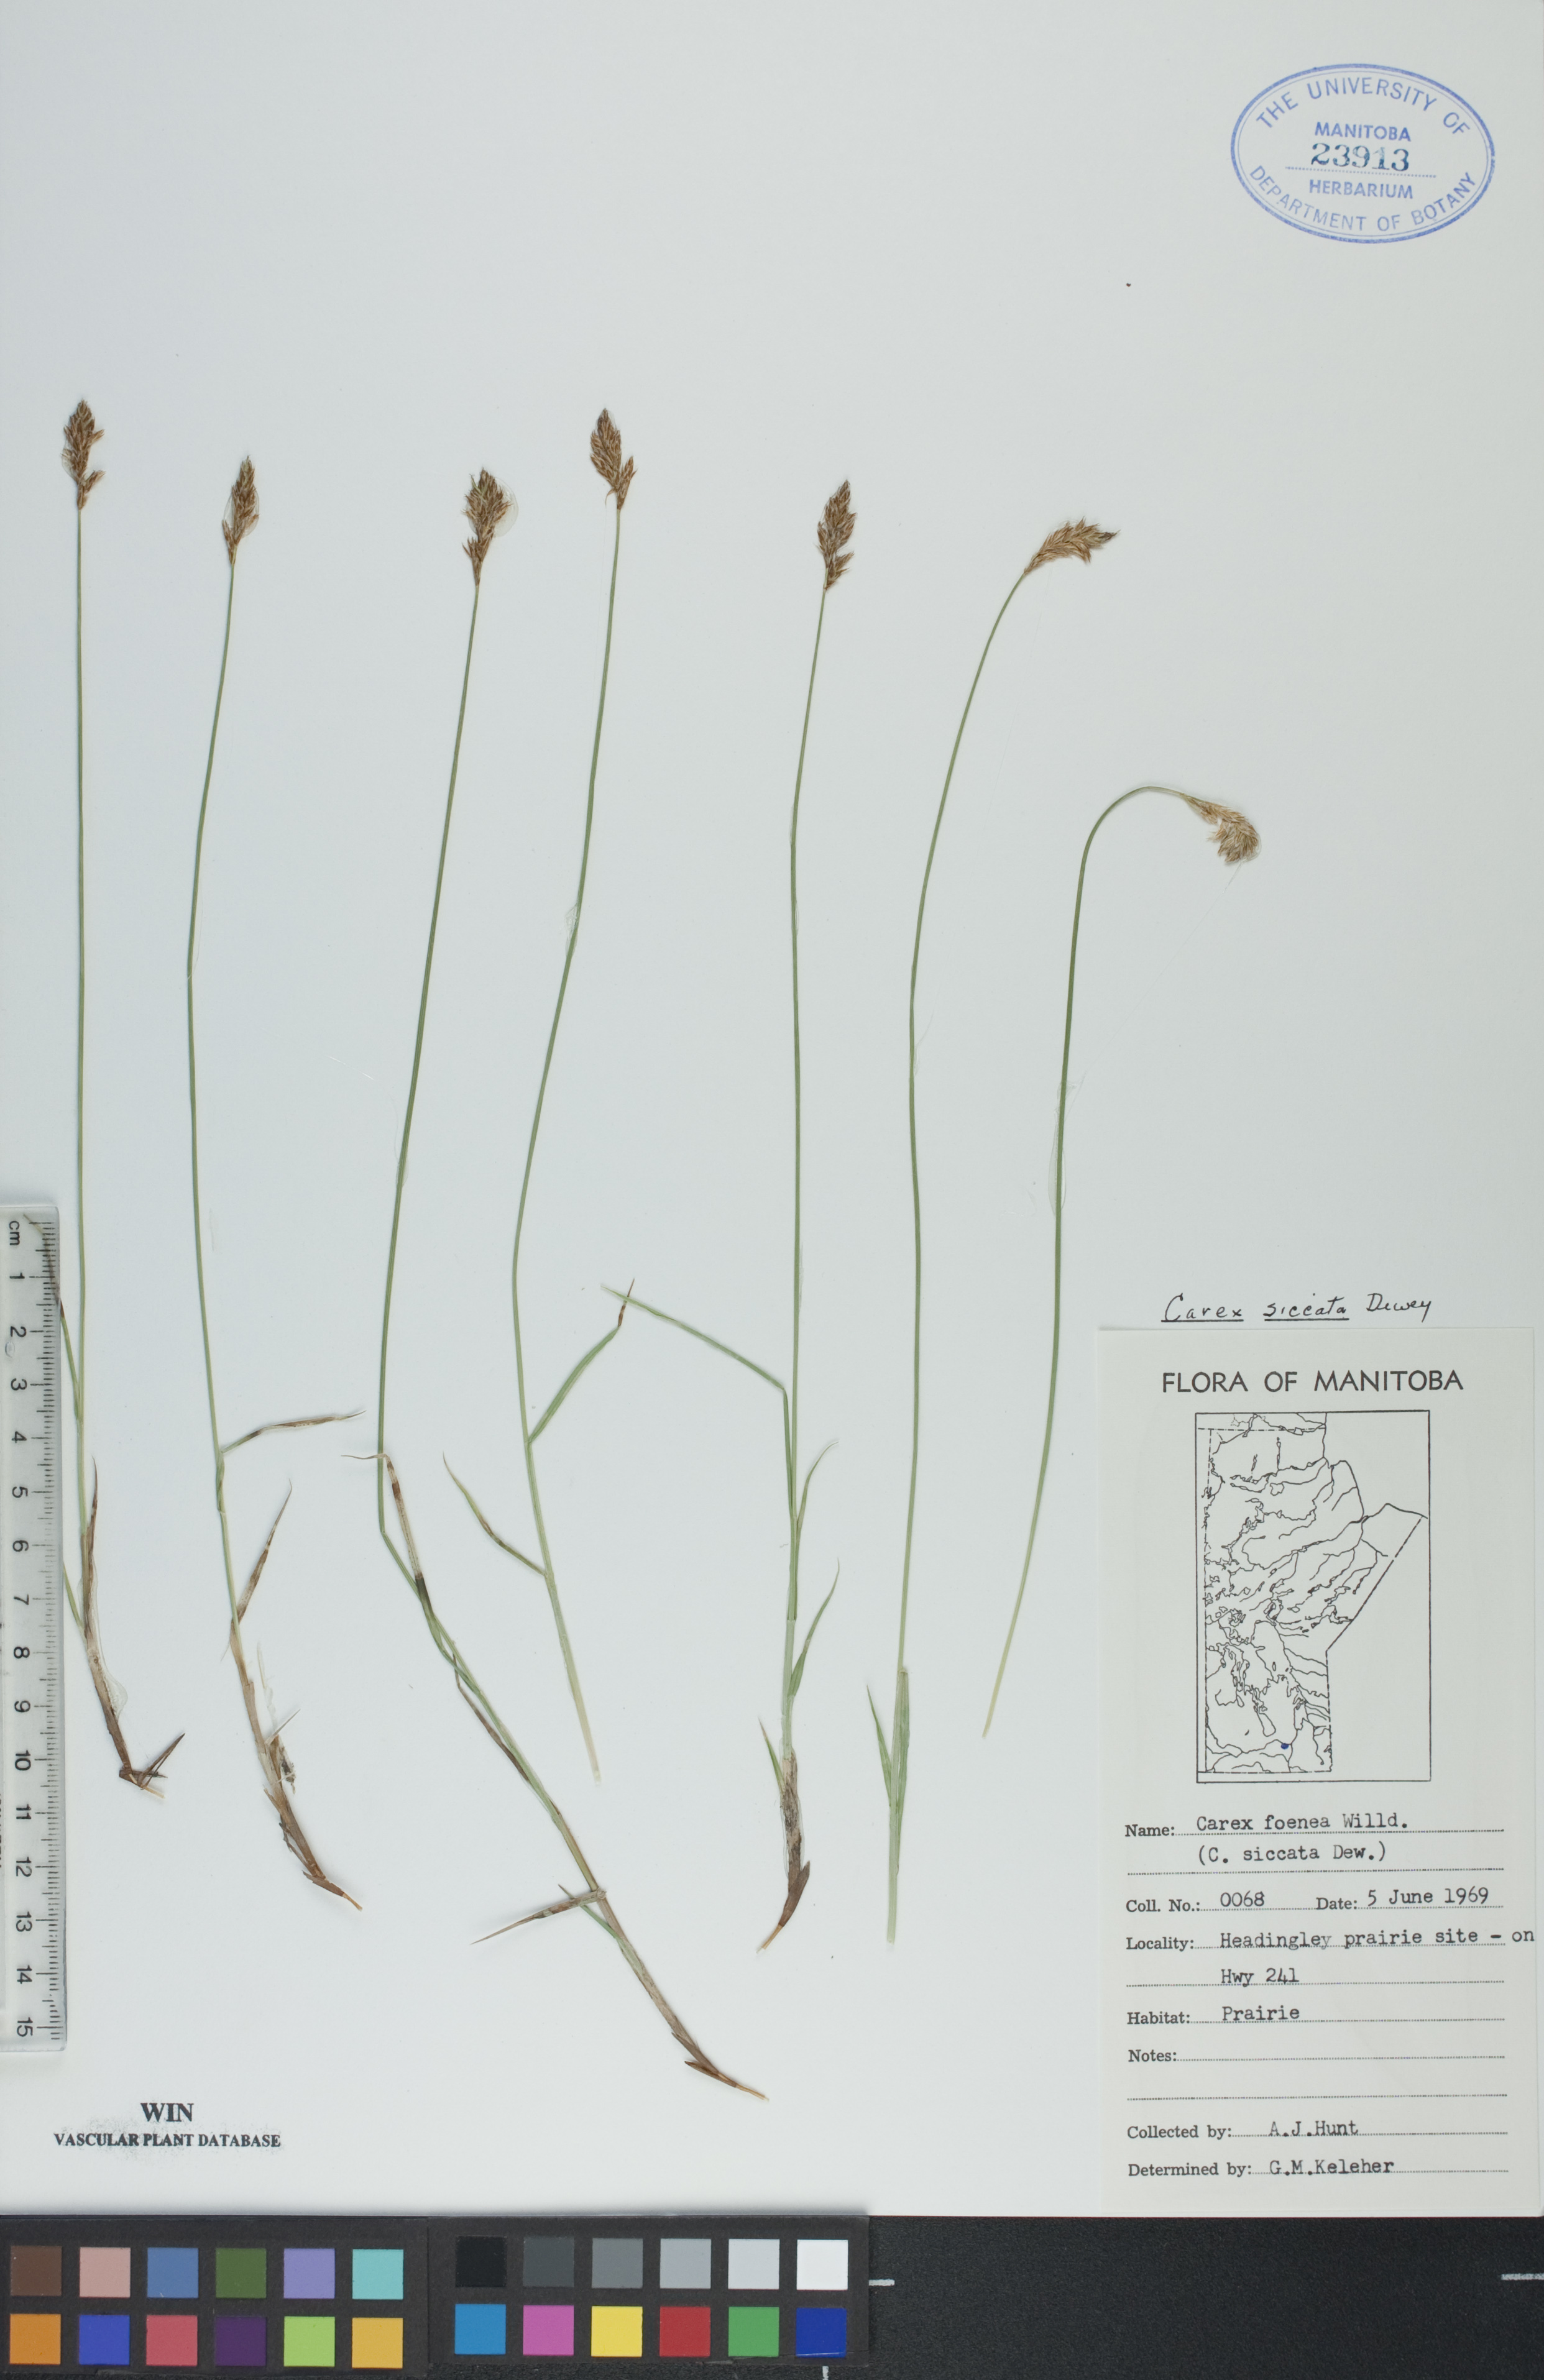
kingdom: Plantae
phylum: Tracheophyta
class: Liliopsida
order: Poales
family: Cyperaceae
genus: Carex
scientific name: Carex siccata
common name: Dry sedge
